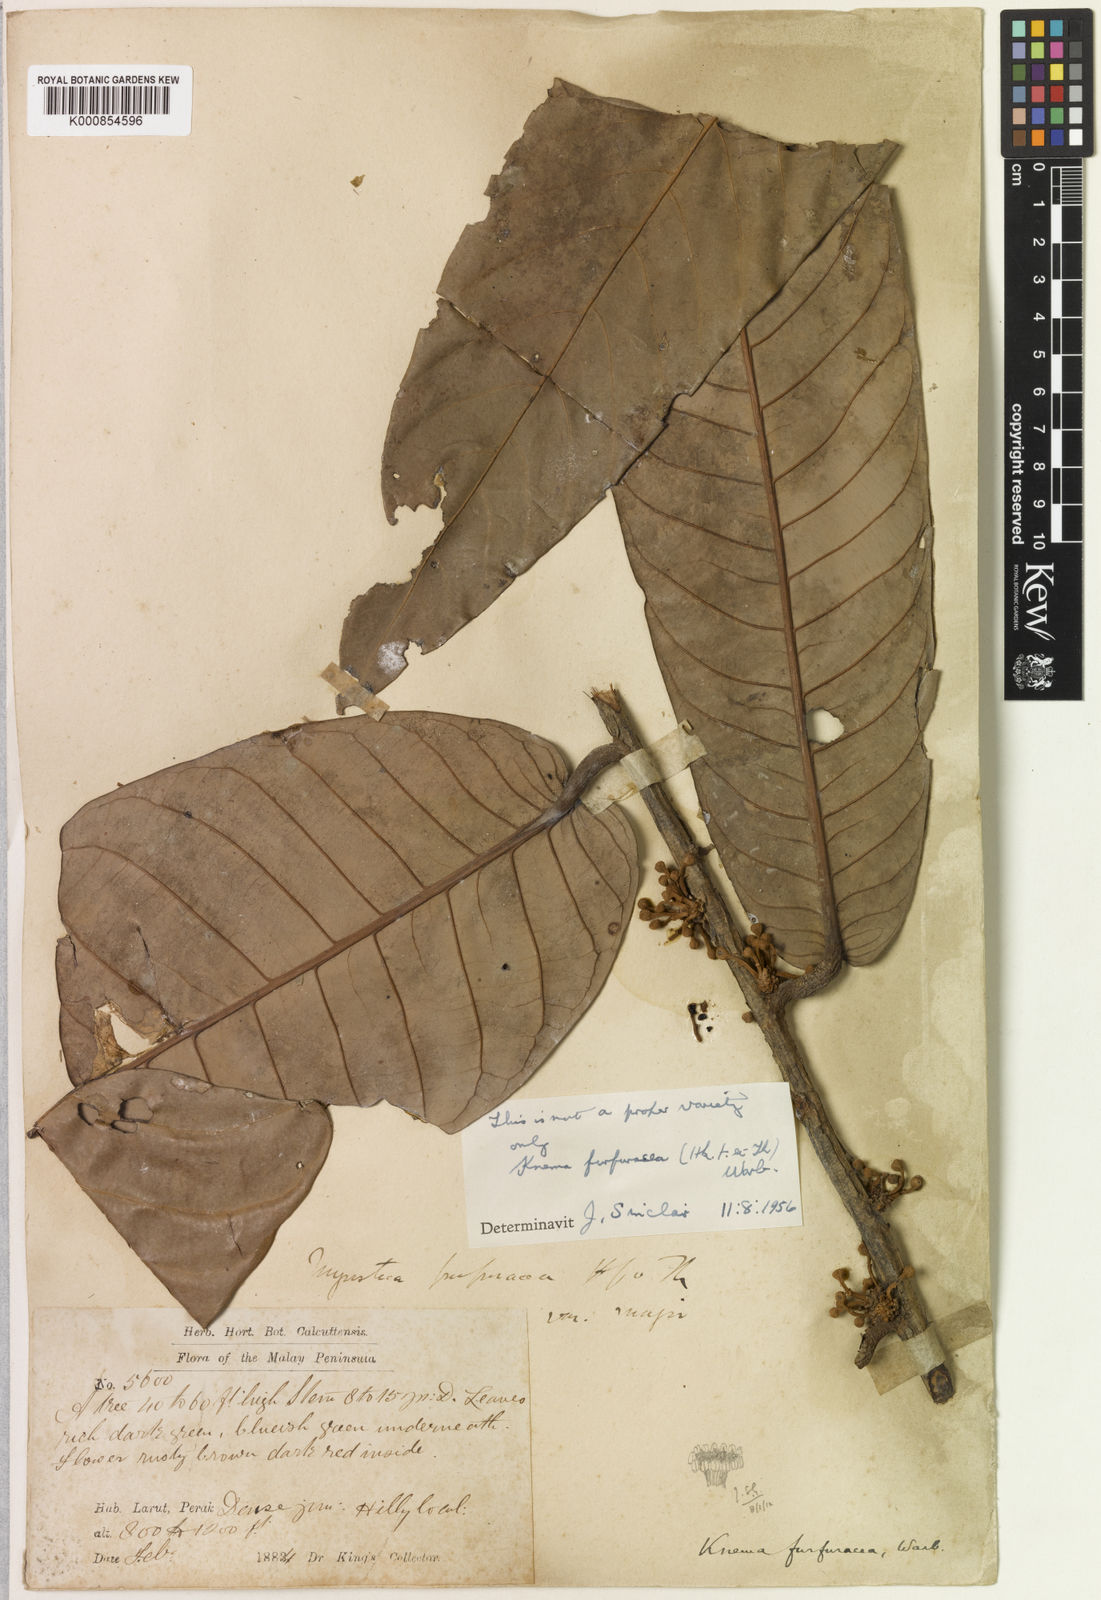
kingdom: Plantae
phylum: Tracheophyta
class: Magnoliopsida
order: Magnoliales
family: Myristicaceae
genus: Knema
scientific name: Knema furfuracea
